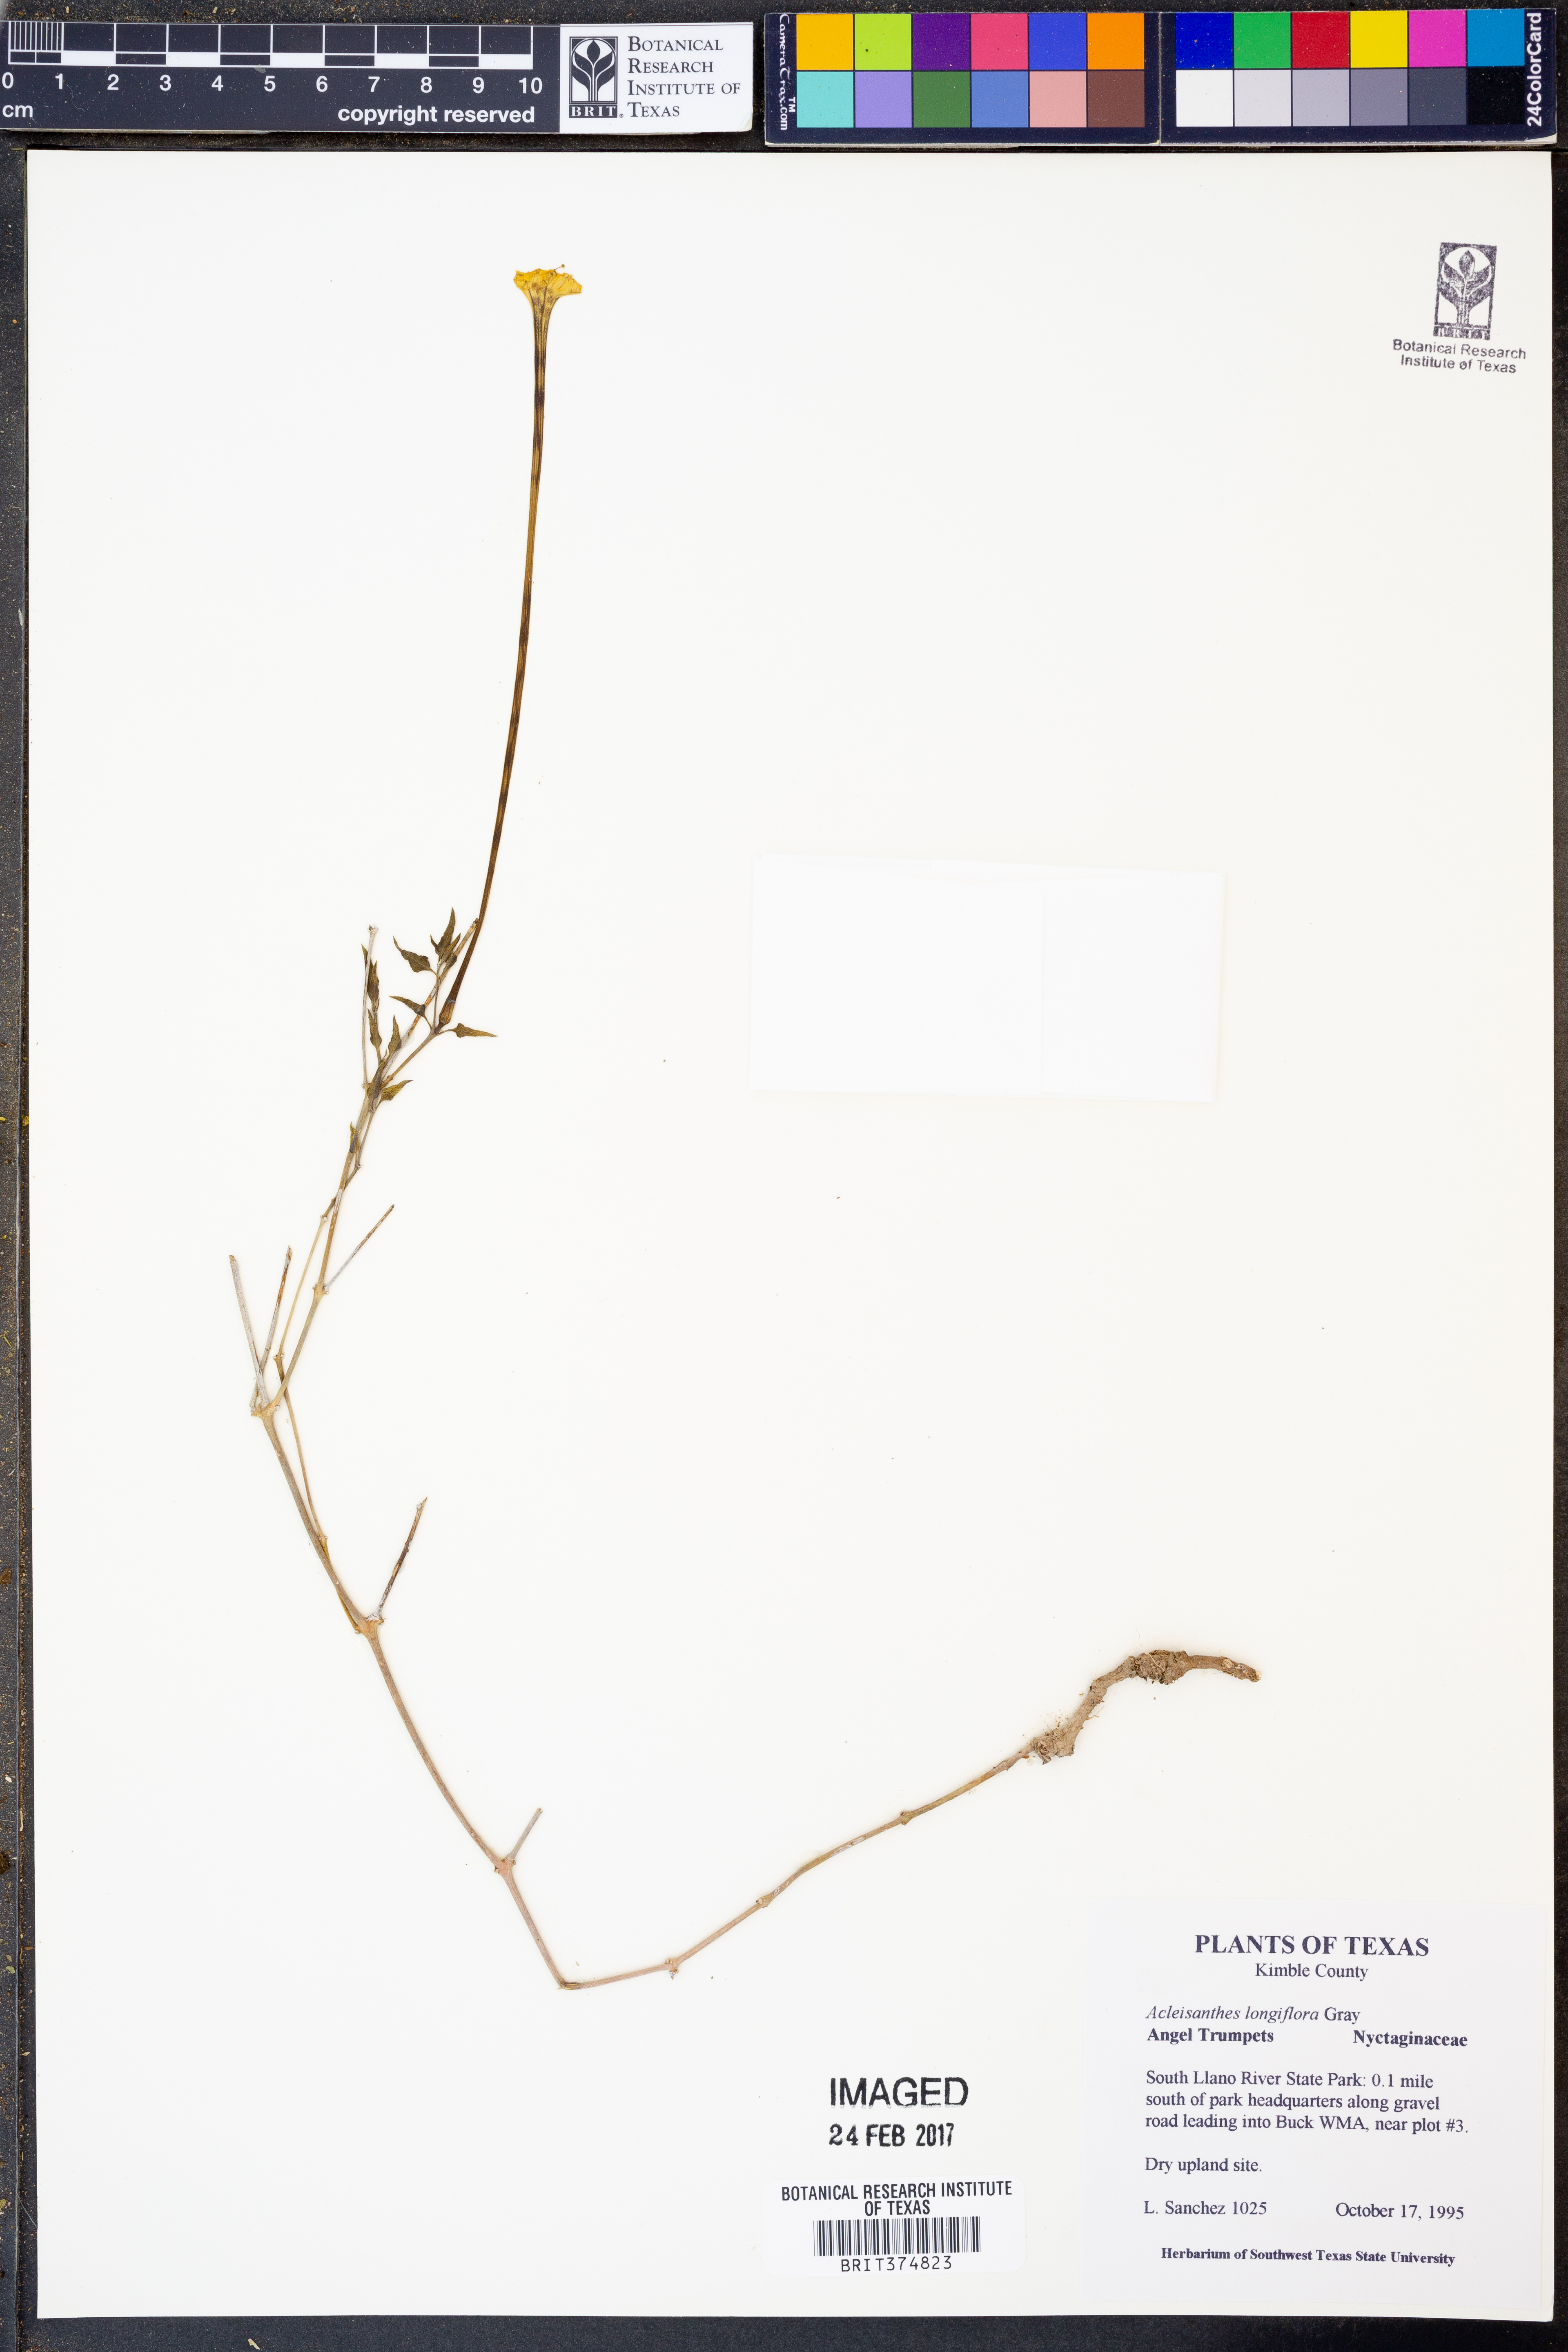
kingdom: Plantae
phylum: Tracheophyta
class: Magnoliopsida
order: Caryophyllales
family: Nyctaginaceae
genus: Acleisanthes
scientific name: Acleisanthes longiflora
